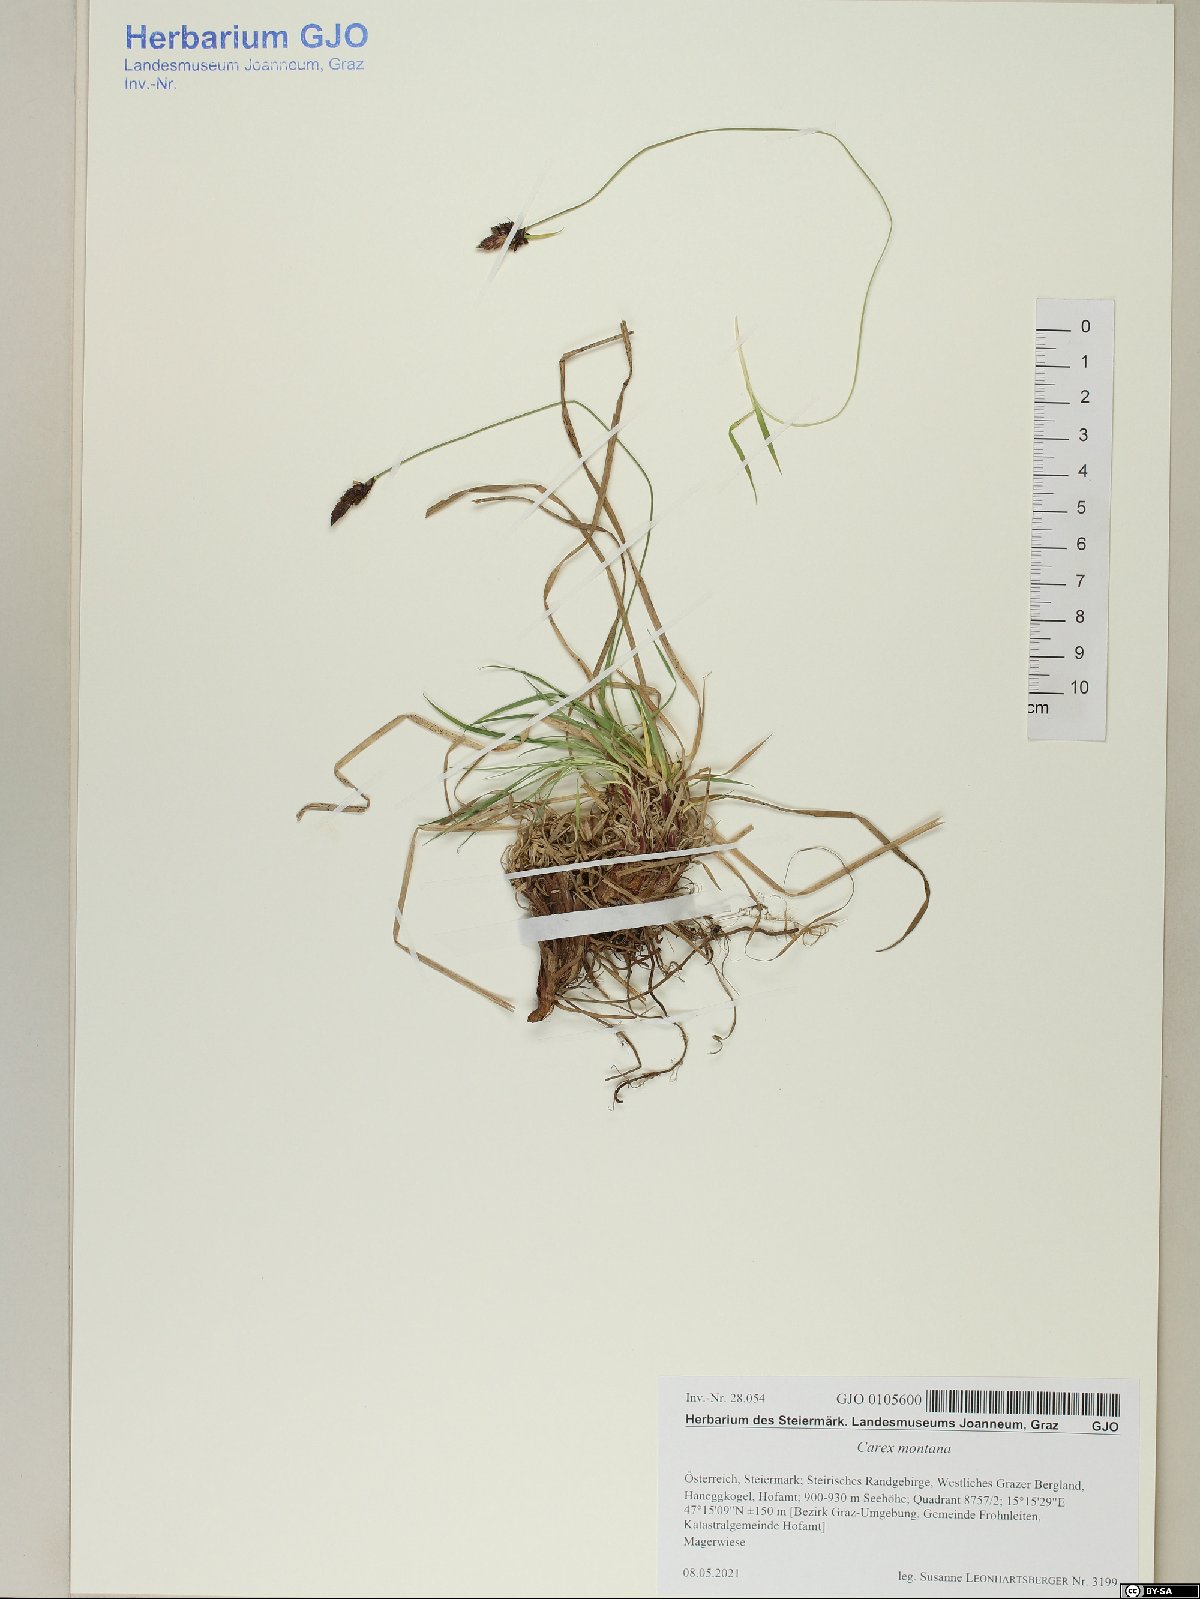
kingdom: Plantae
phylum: Tracheophyta
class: Liliopsida
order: Poales
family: Cyperaceae
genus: Carex
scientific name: Carex montana
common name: Soft-leaved sedge
